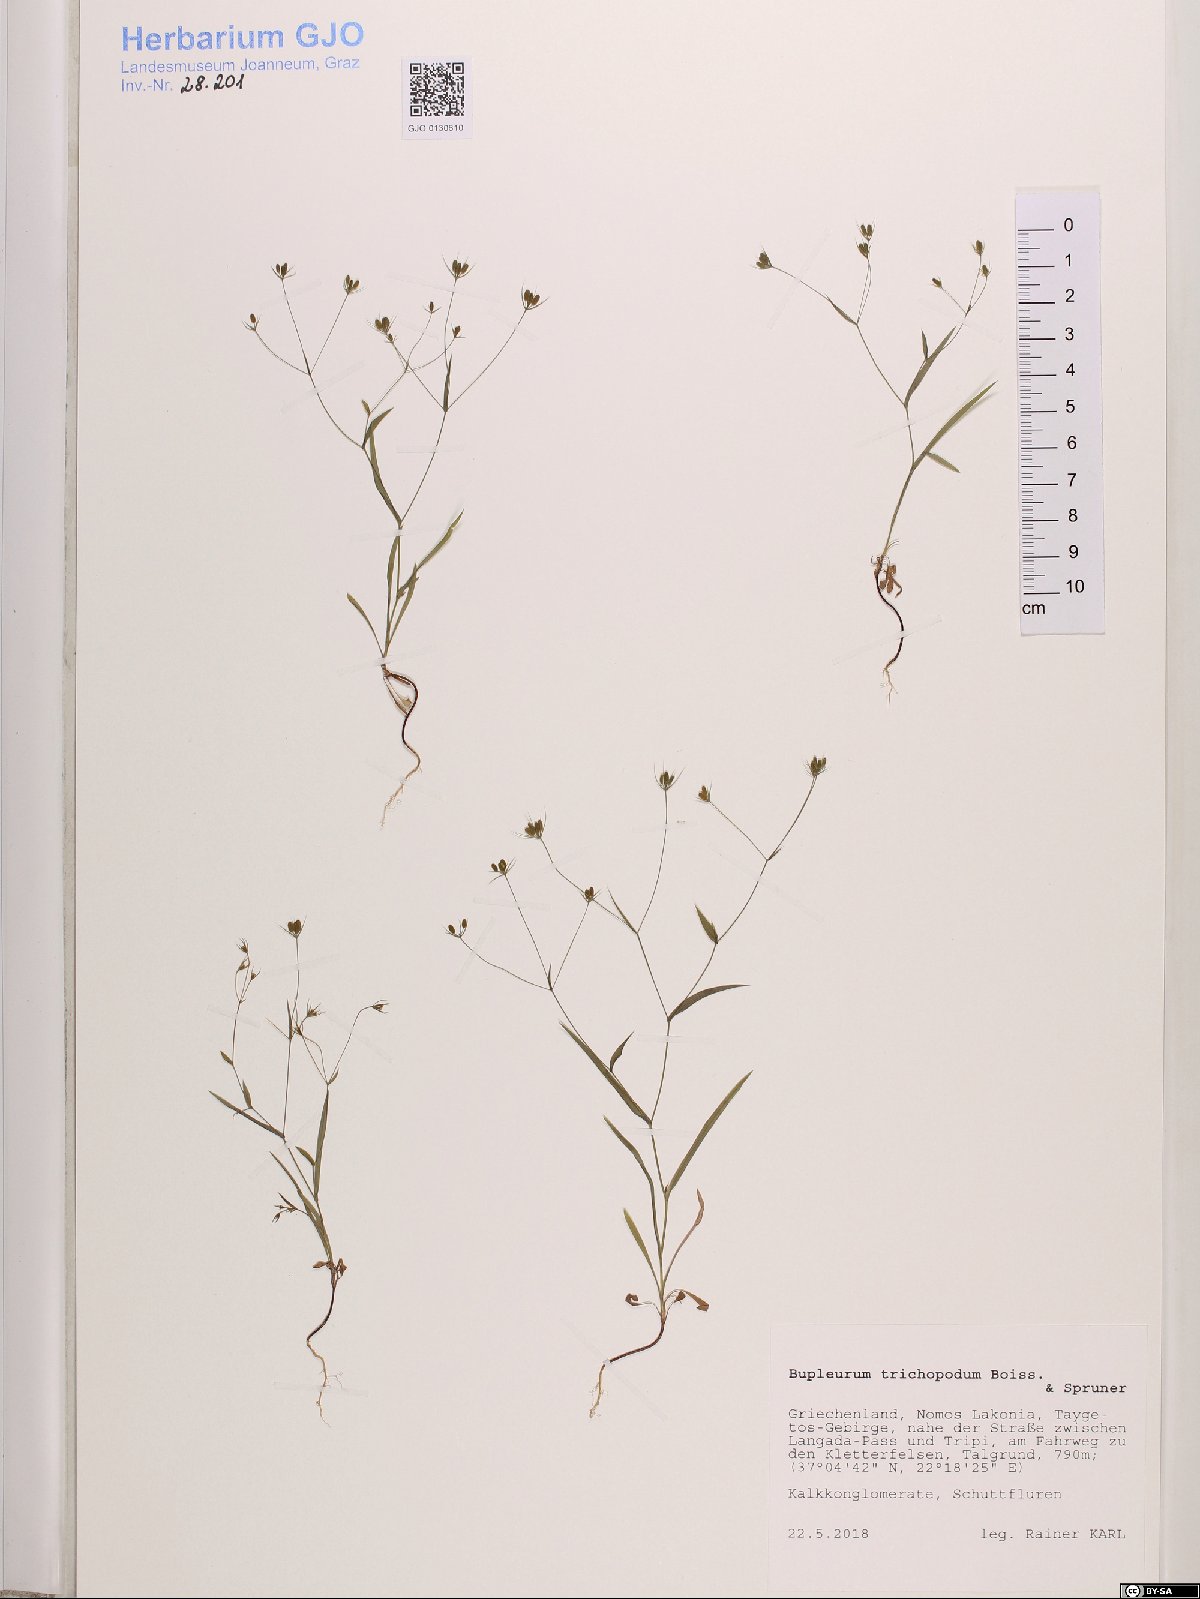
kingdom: Plantae
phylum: Tracheophyta
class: Magnoliopsida
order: Apiales
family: Apiaceae
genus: Bupleurum
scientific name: Bupleurum trichopodum
